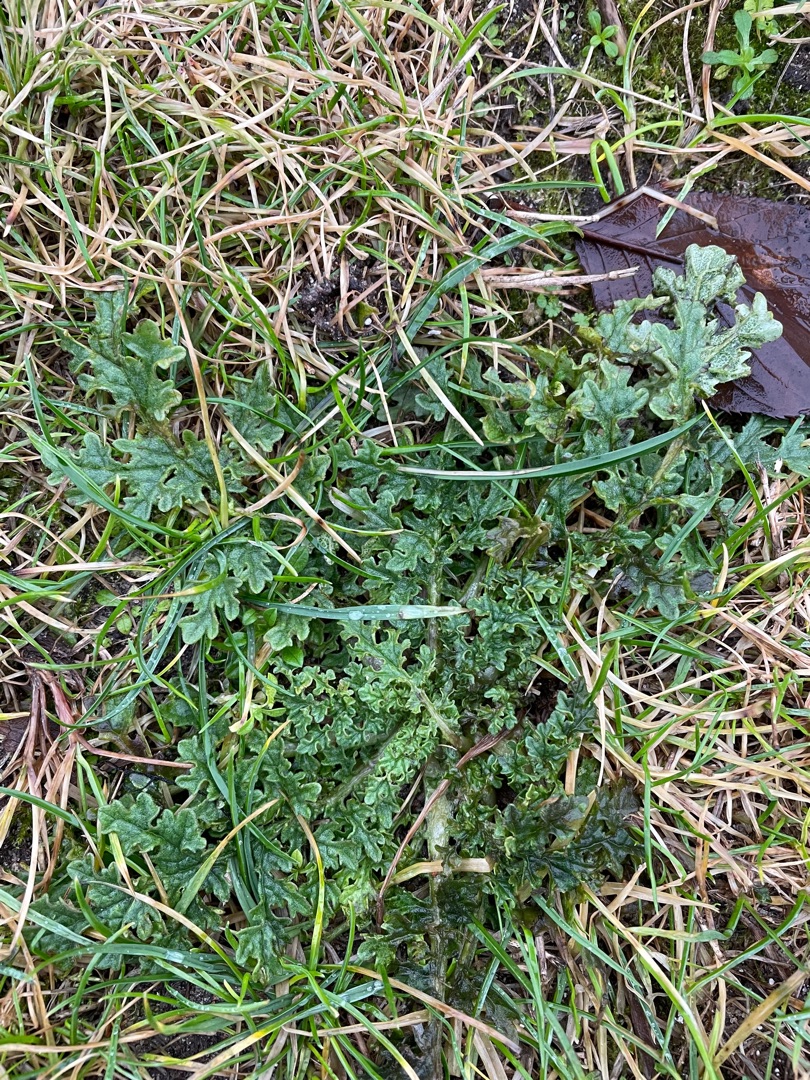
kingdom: Plantae
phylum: Tracheophyta
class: Magnoliopsida
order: Asterales
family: Asteraceae
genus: Jacobaea
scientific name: Jacobaea vulgaris
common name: Eng-brandbæger
